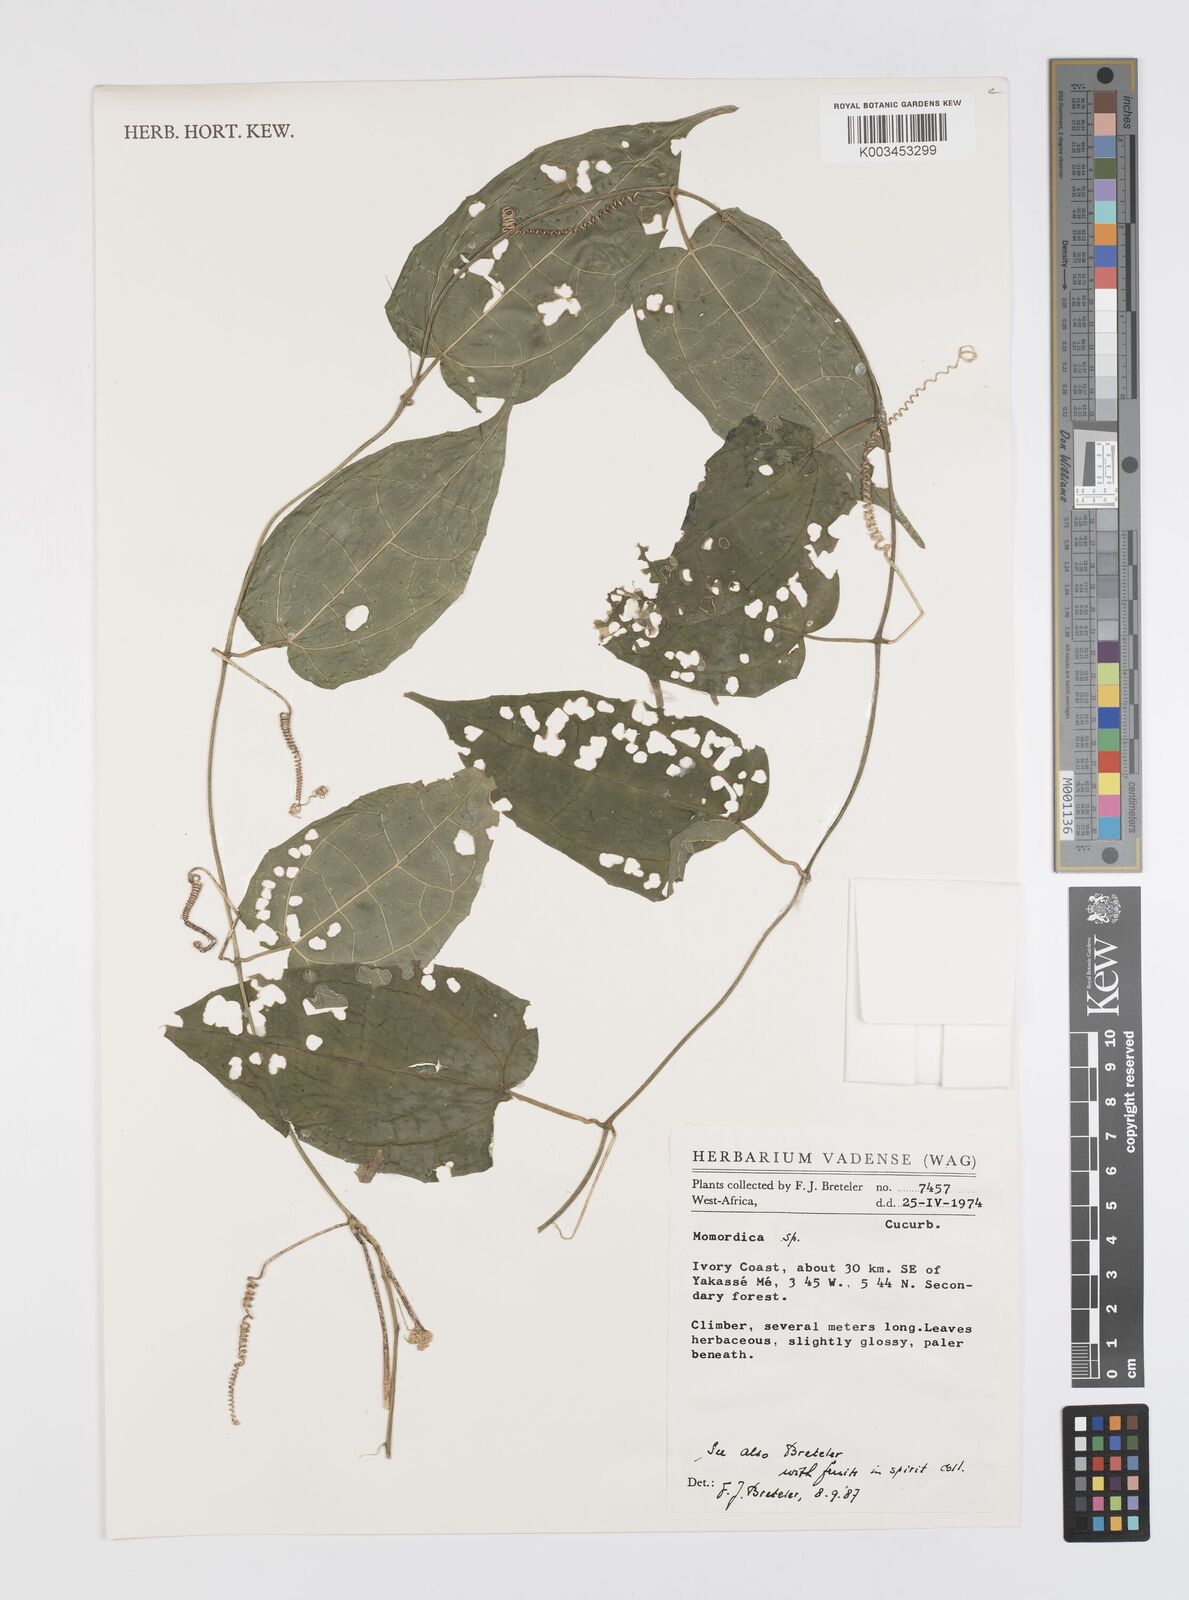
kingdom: Plantae
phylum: Tracheophyta
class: Magnoliopsida
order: Cucurbitales
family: Cucurbitaceae
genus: Momordica
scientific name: Momordica
